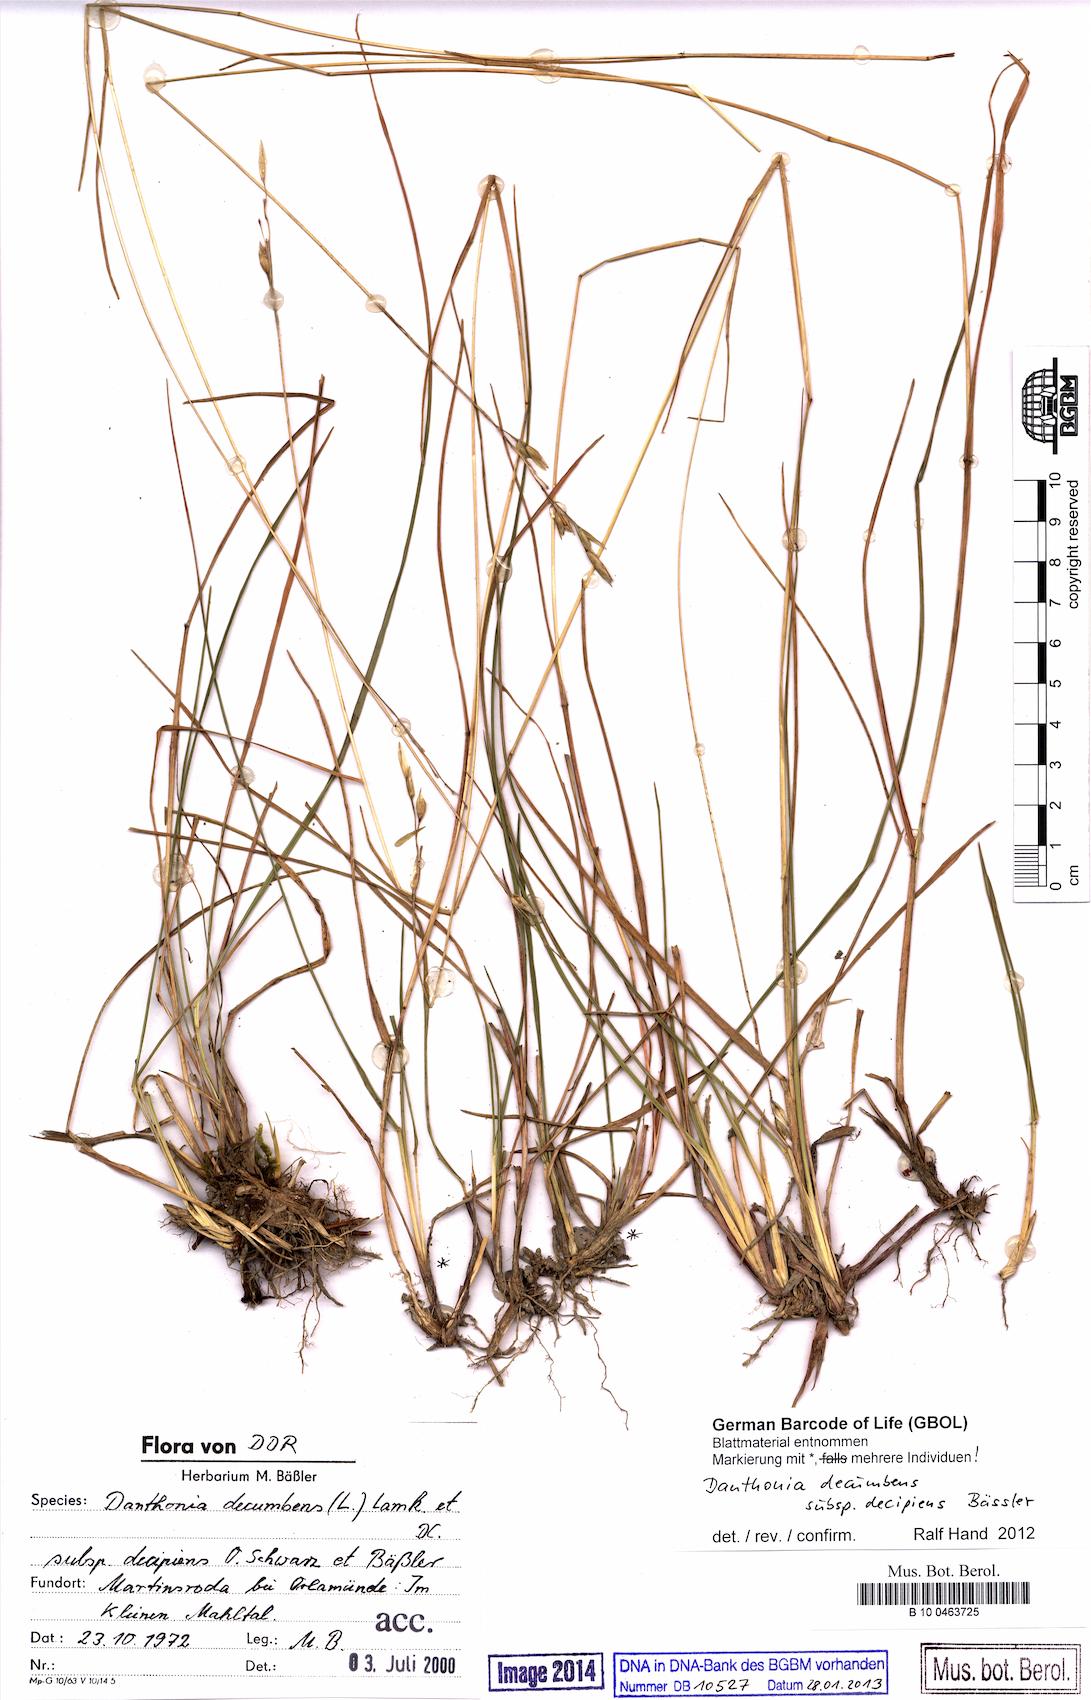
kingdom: Plantae
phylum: Tracheophyta
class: Liliopsida
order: Poales
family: Poaceae
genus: Danthonia
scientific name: Danthonia decumbens
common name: Common heathgrass
